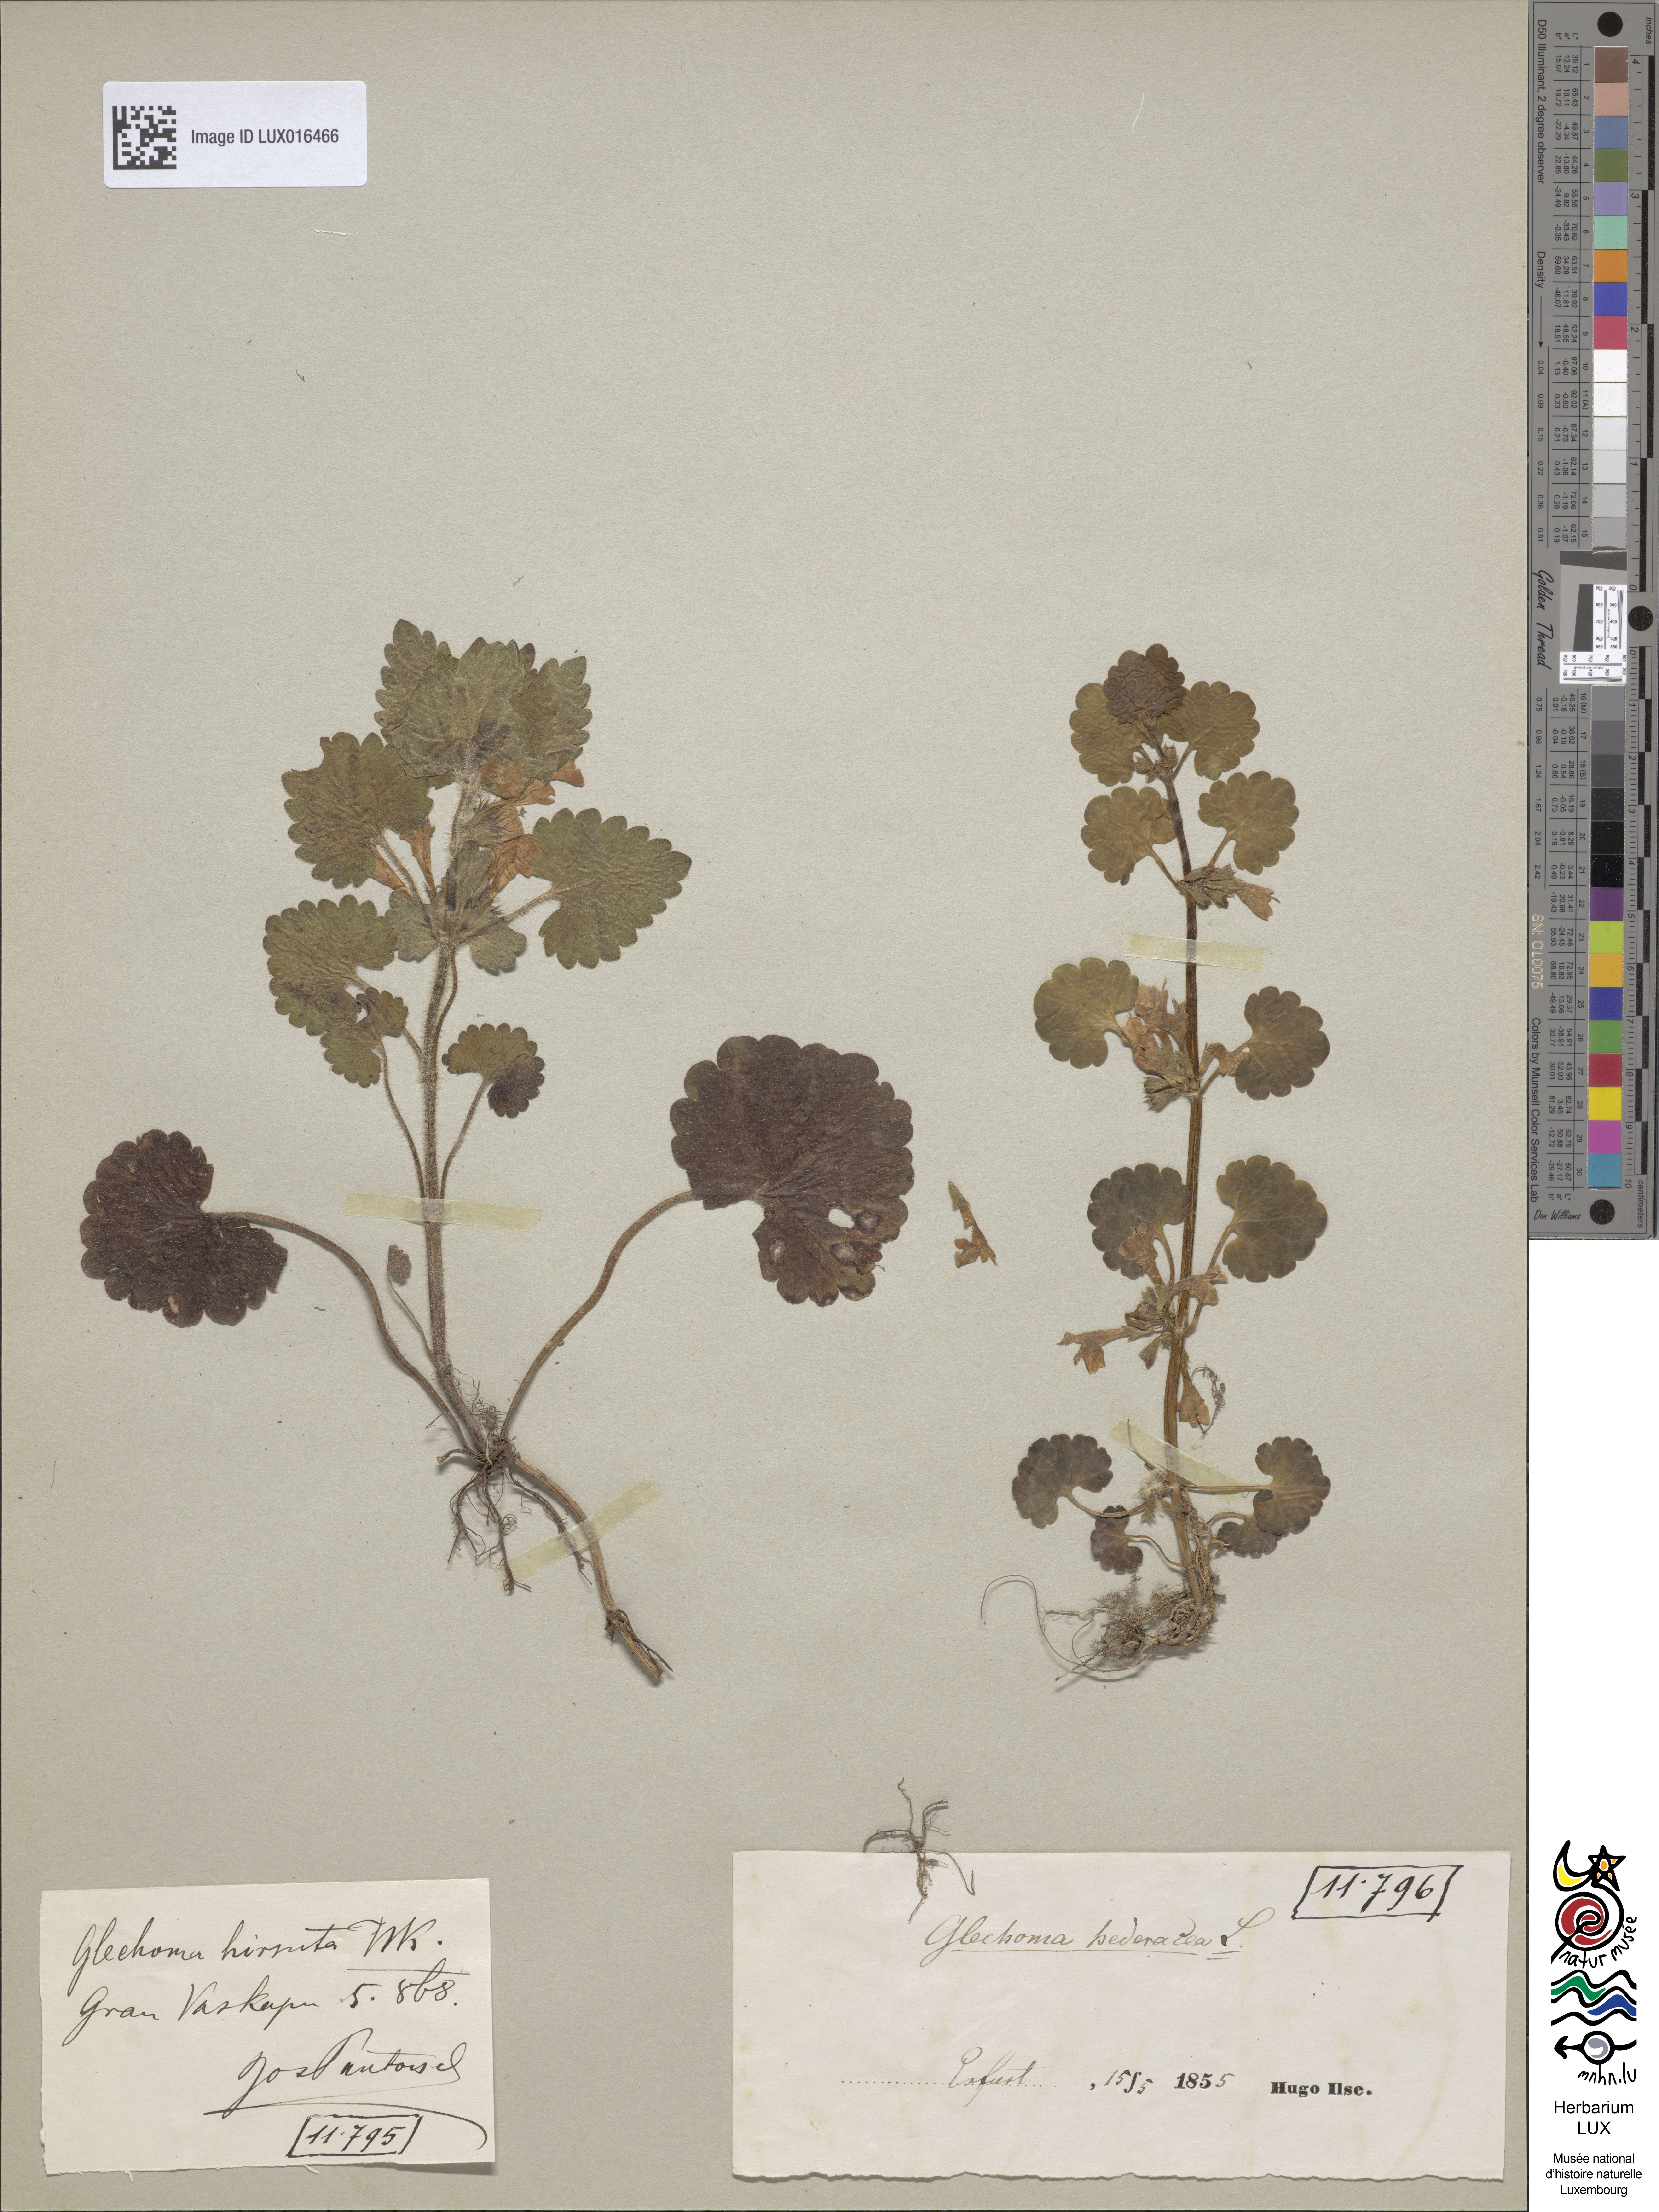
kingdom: Plantae
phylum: Tracheophyta
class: Magnoliopsida
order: Lamiales
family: Lamiaceae
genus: Glechoma
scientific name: Glechoma hederacea
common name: Ground ivy
